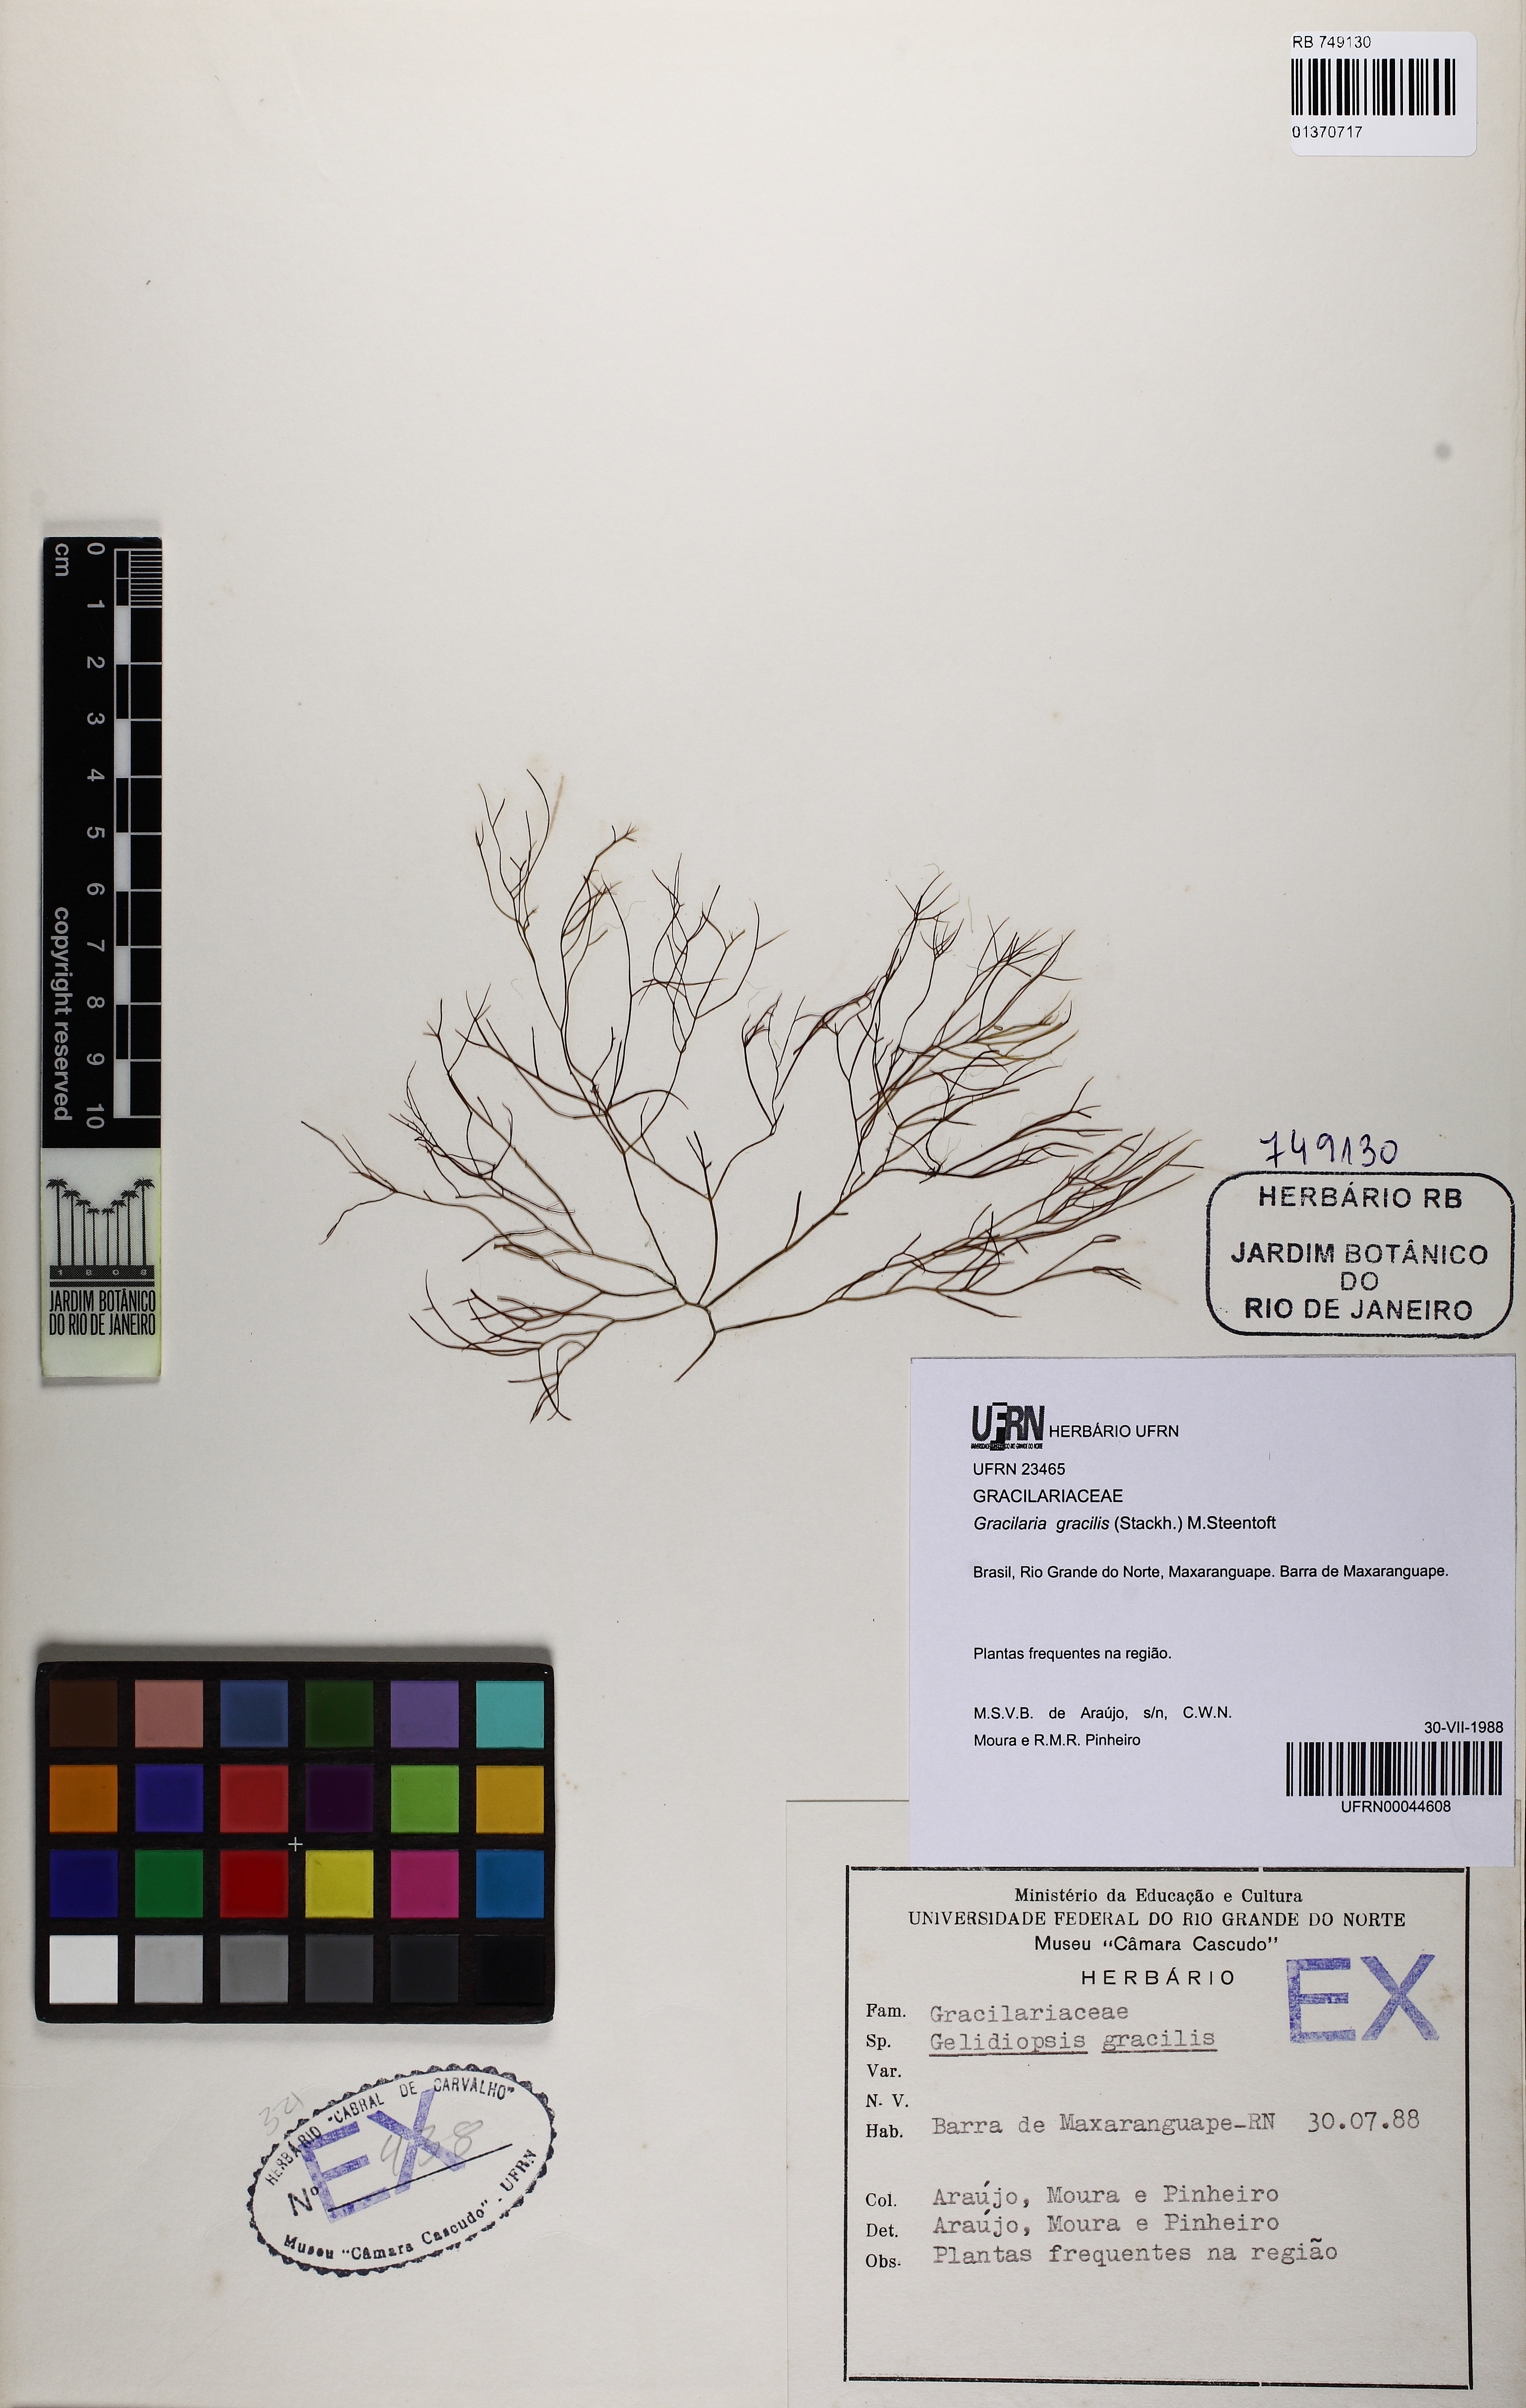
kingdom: Plantae
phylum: Rhodophyta
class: Florideophyceae
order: Gracilariales
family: Gracilariaceae
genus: Gracilaria
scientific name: Gracilaria gracilis
